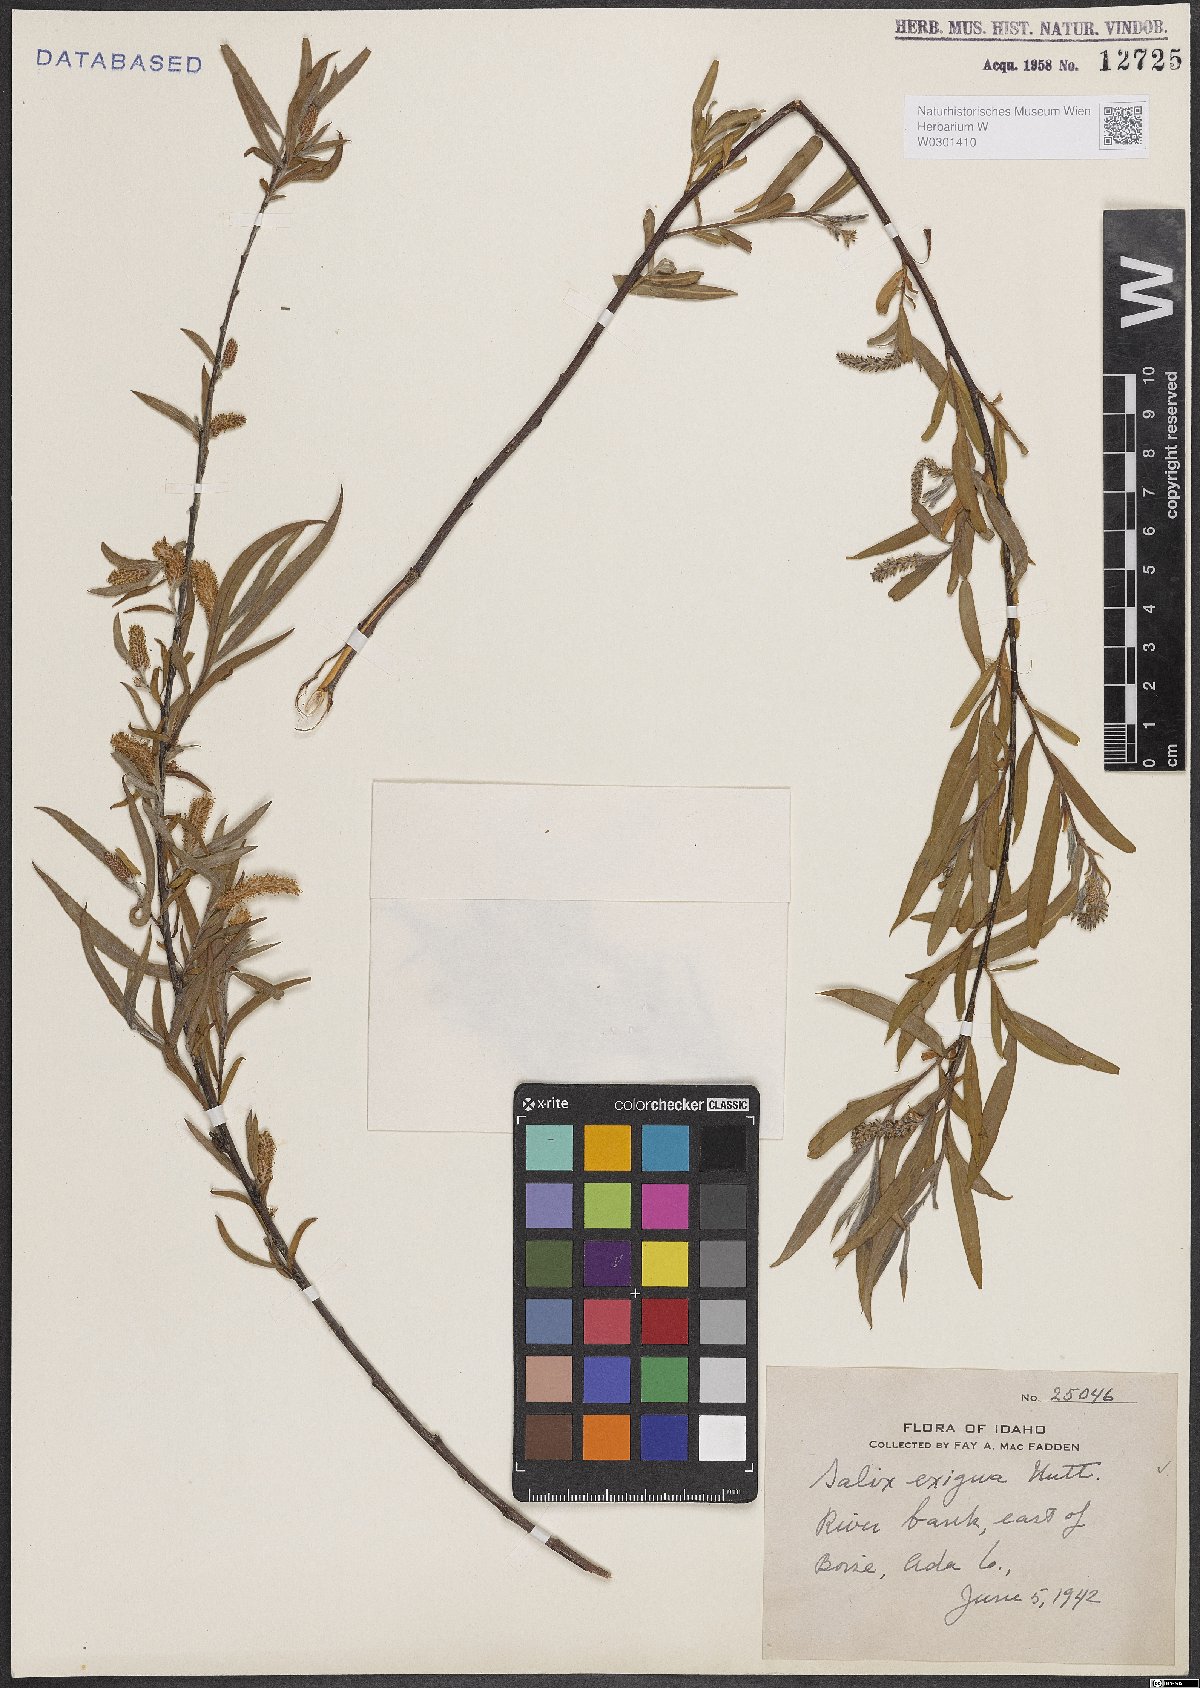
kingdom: Plantae
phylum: Tracheophyta
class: Magnoliopsida
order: Malpighiales
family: Salicaceae
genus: Salix
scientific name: Salix exigua
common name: Coyote willow
